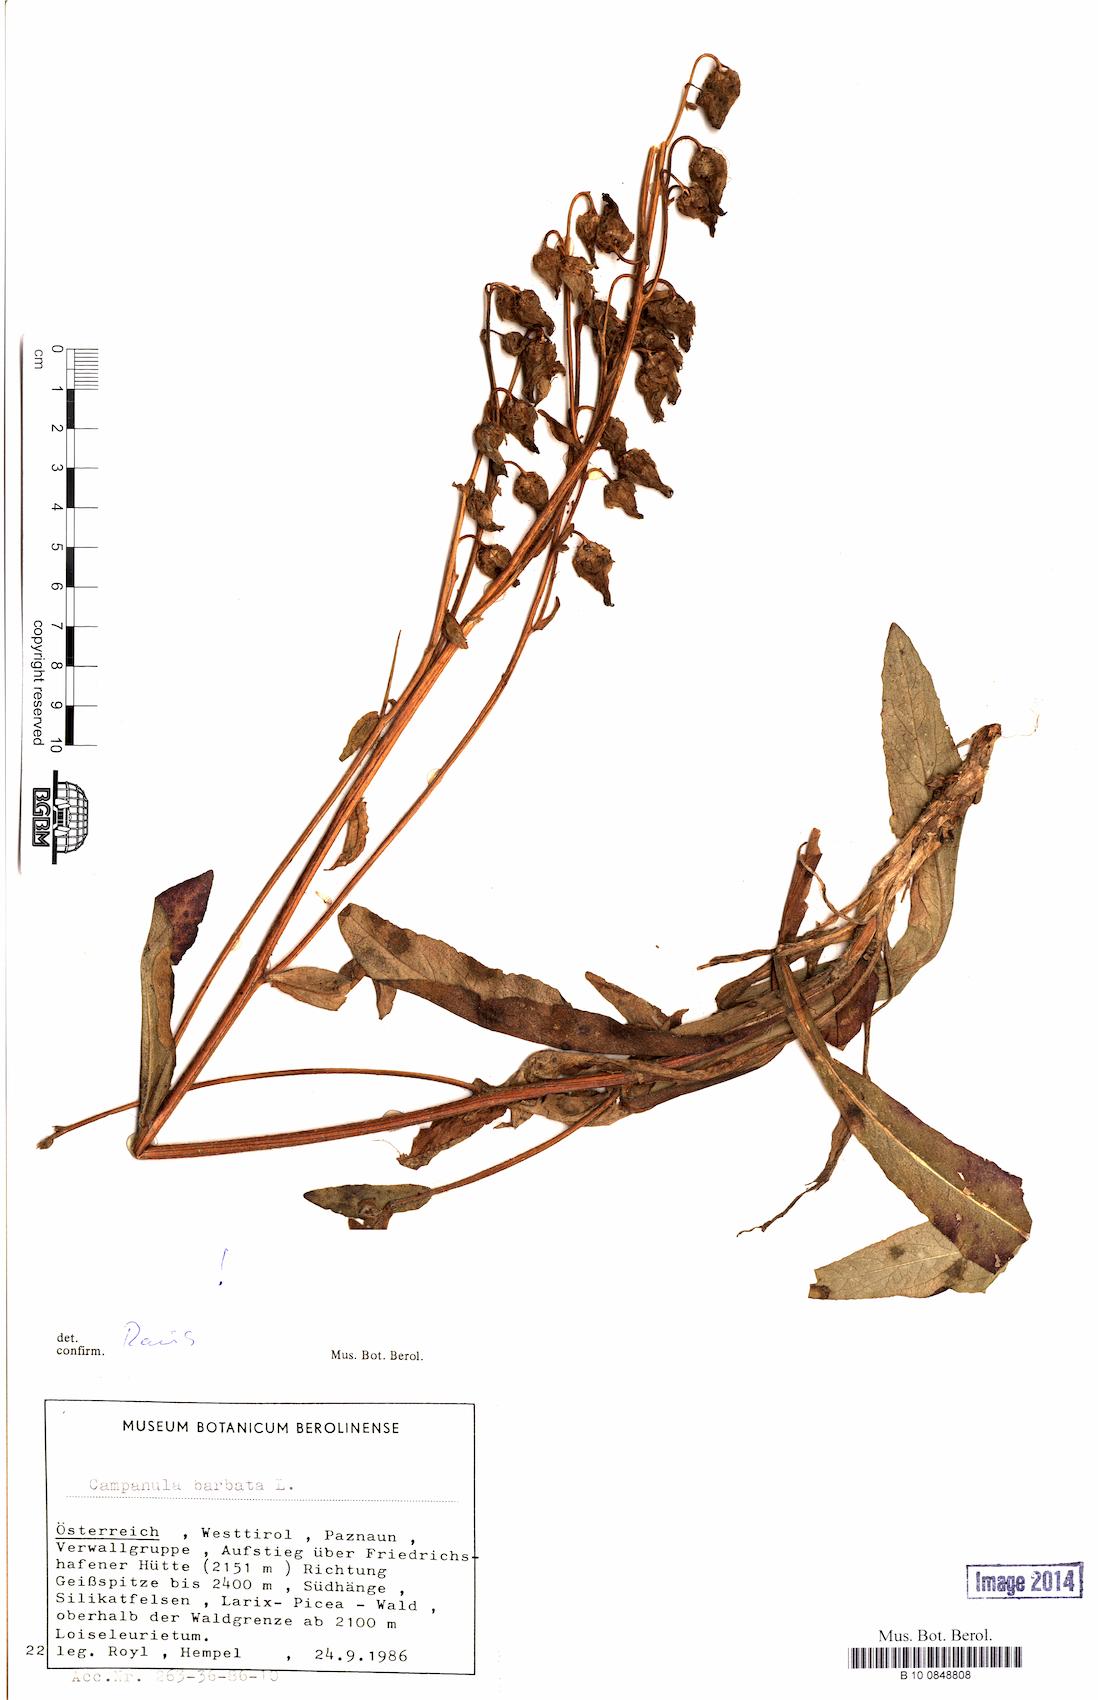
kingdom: Plantae
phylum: Tracheophyta
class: Magnoliopsida
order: Asterales
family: Campanulaceae
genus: Campanula
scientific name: Campanula barbata
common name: Bearded bellflower
